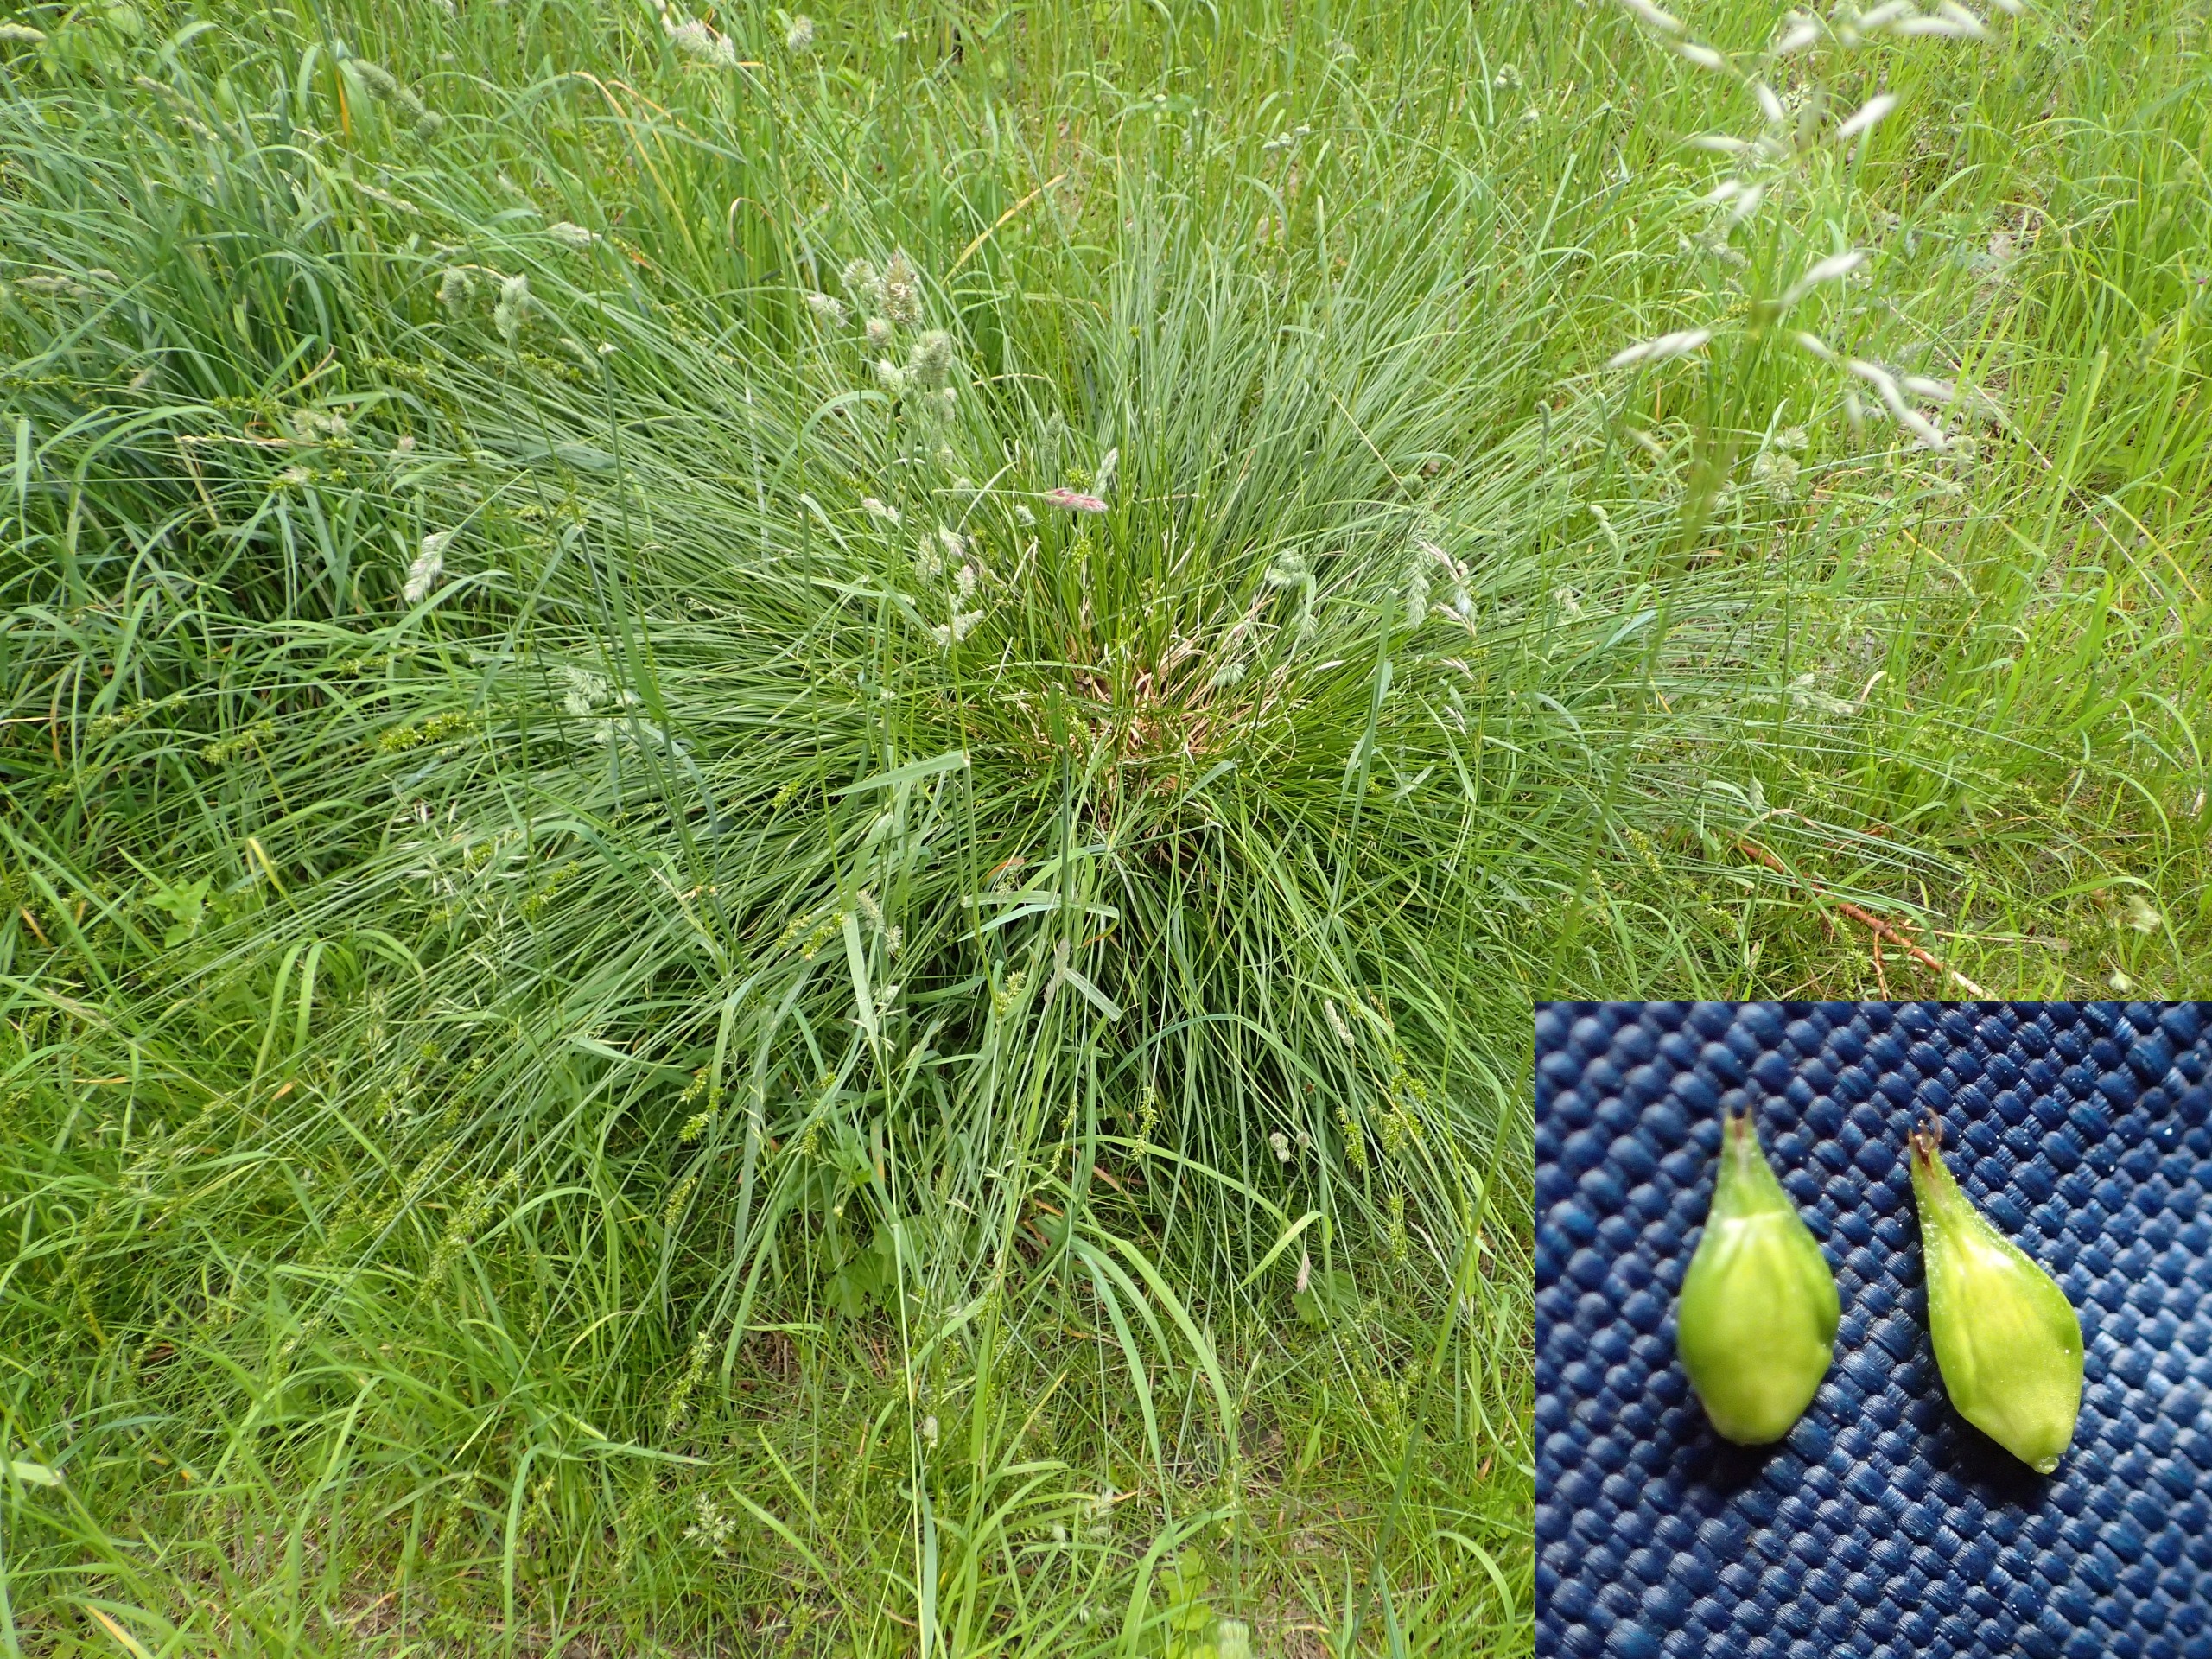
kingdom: Plantae
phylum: Tracheophyta
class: Liliopsida
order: Poales
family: Cyperaceae
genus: Carex
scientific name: Carex spicata
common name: Spidskapslet star
